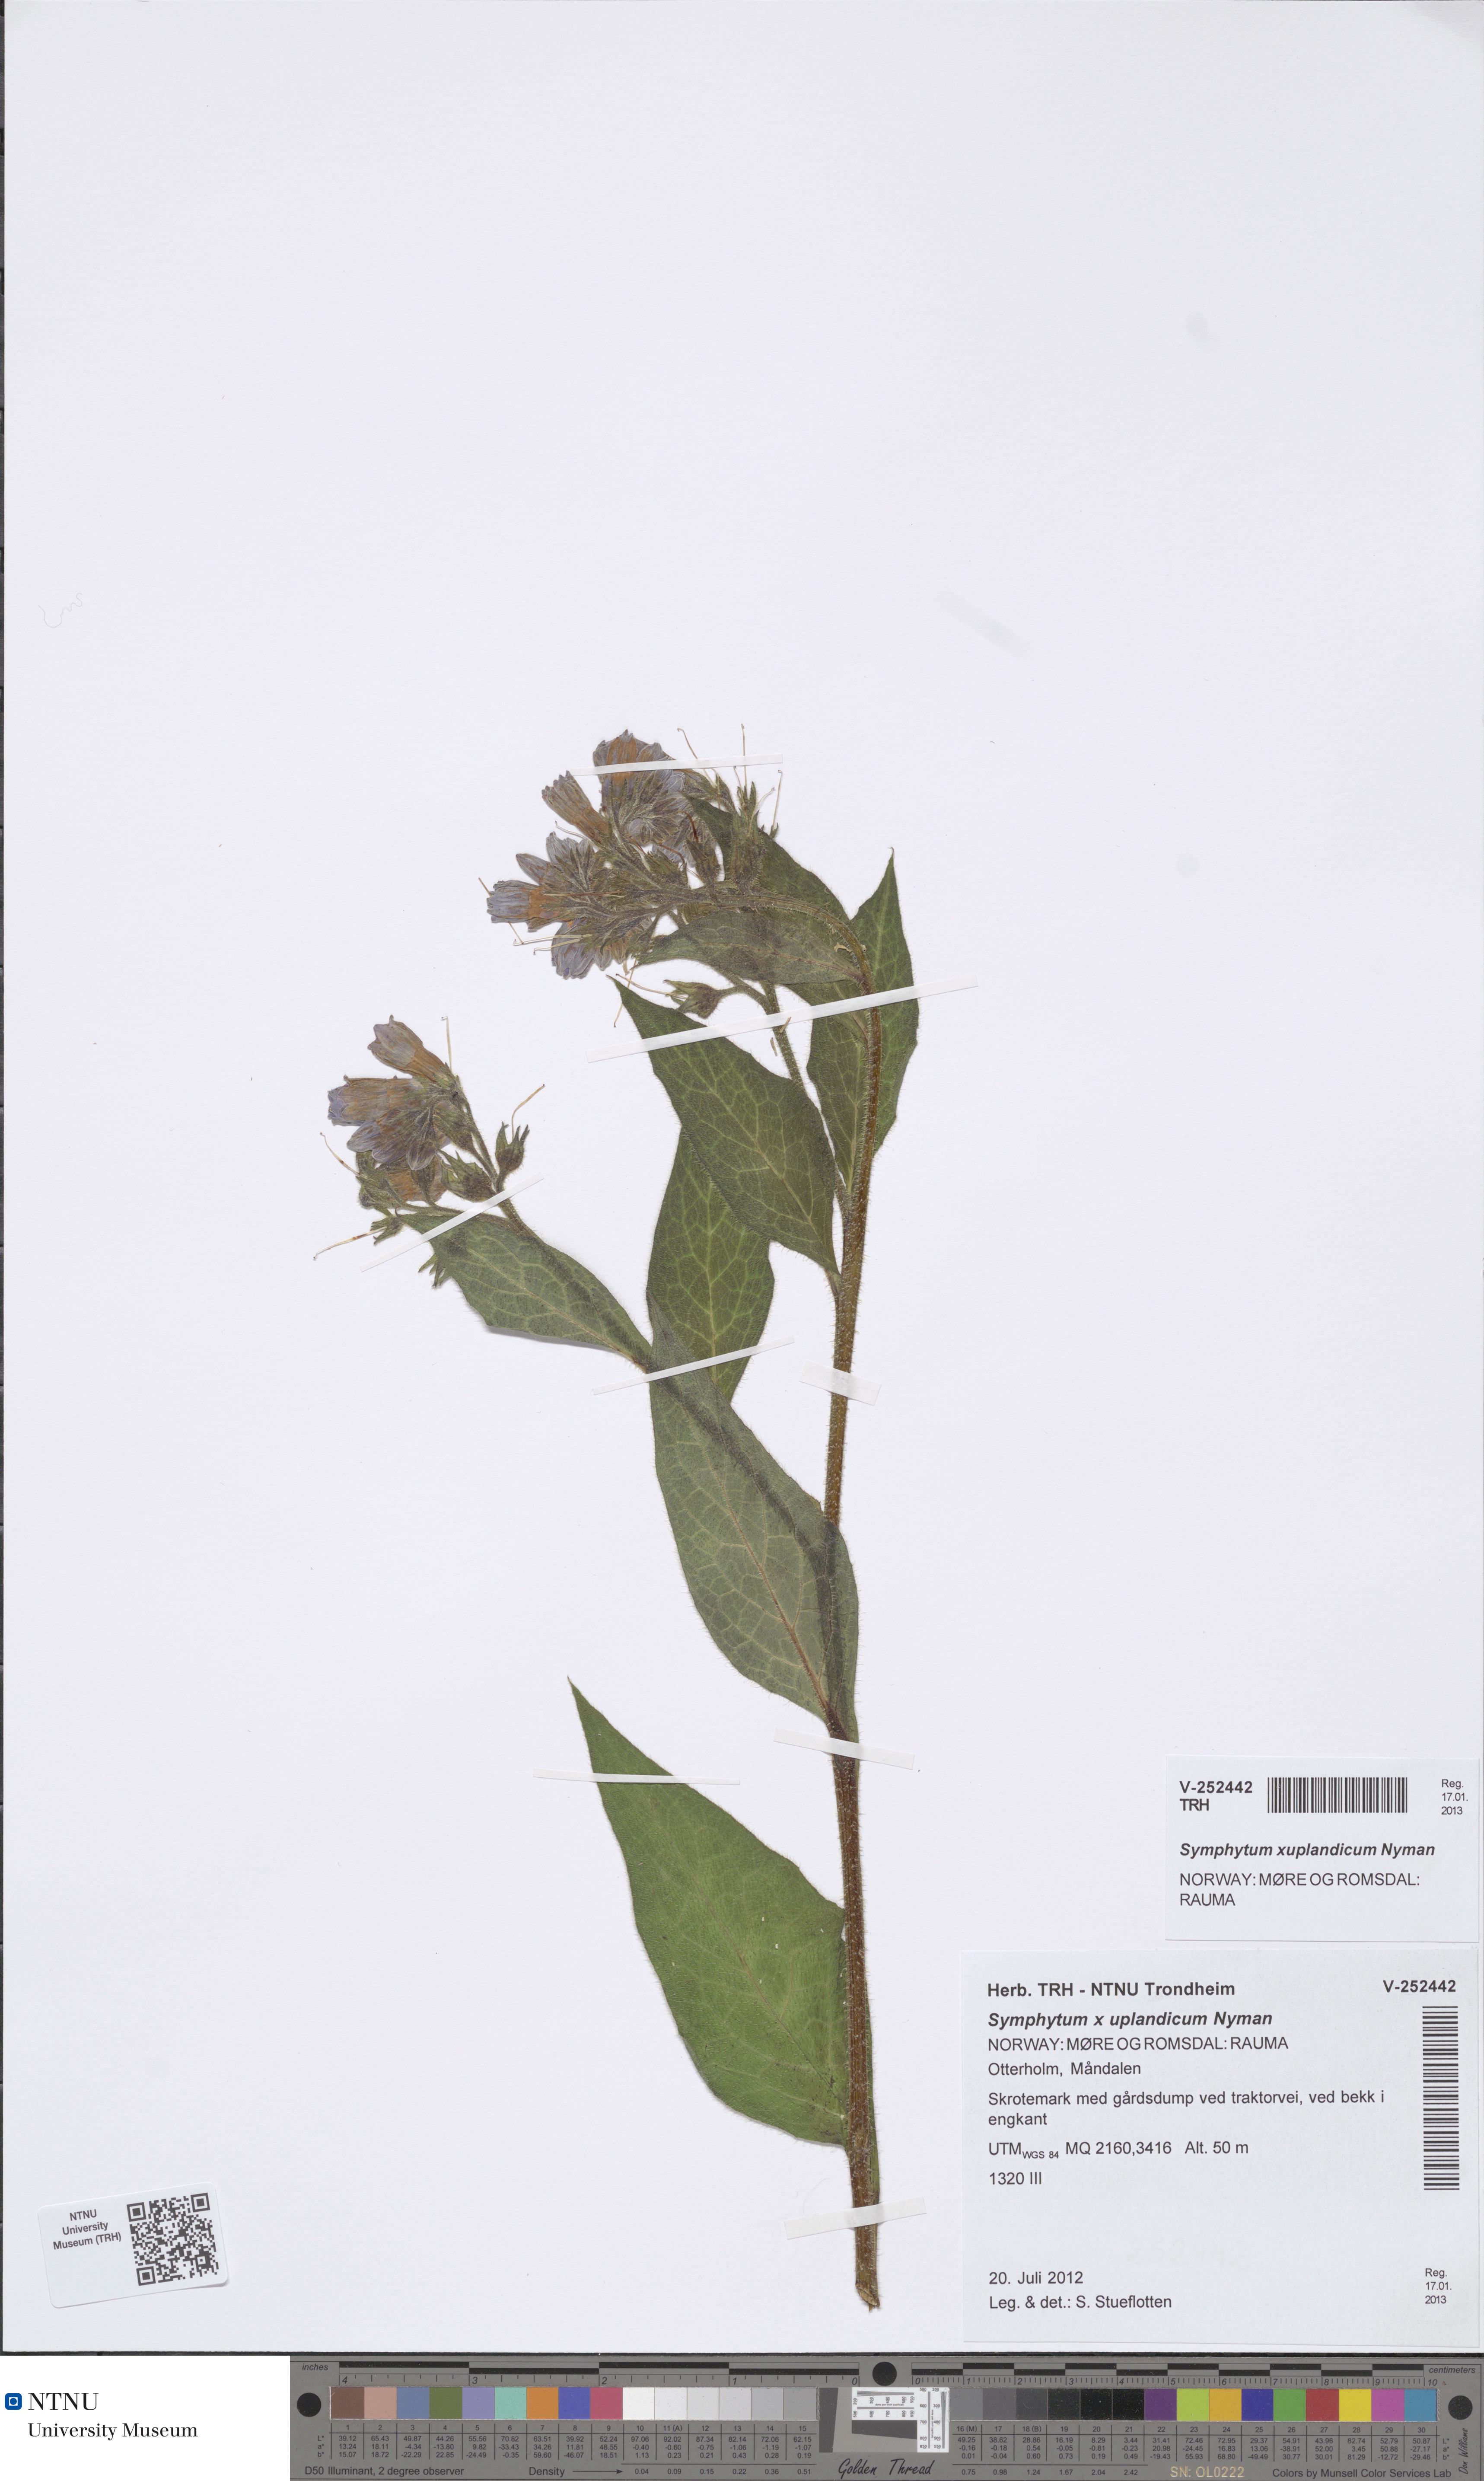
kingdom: Plantae
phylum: Tracheophyta
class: Magnoliopsida
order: Boraginales
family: Boraginaceae
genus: Symphytum
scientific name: Symphytum uplandicum
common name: Russian comfrey
